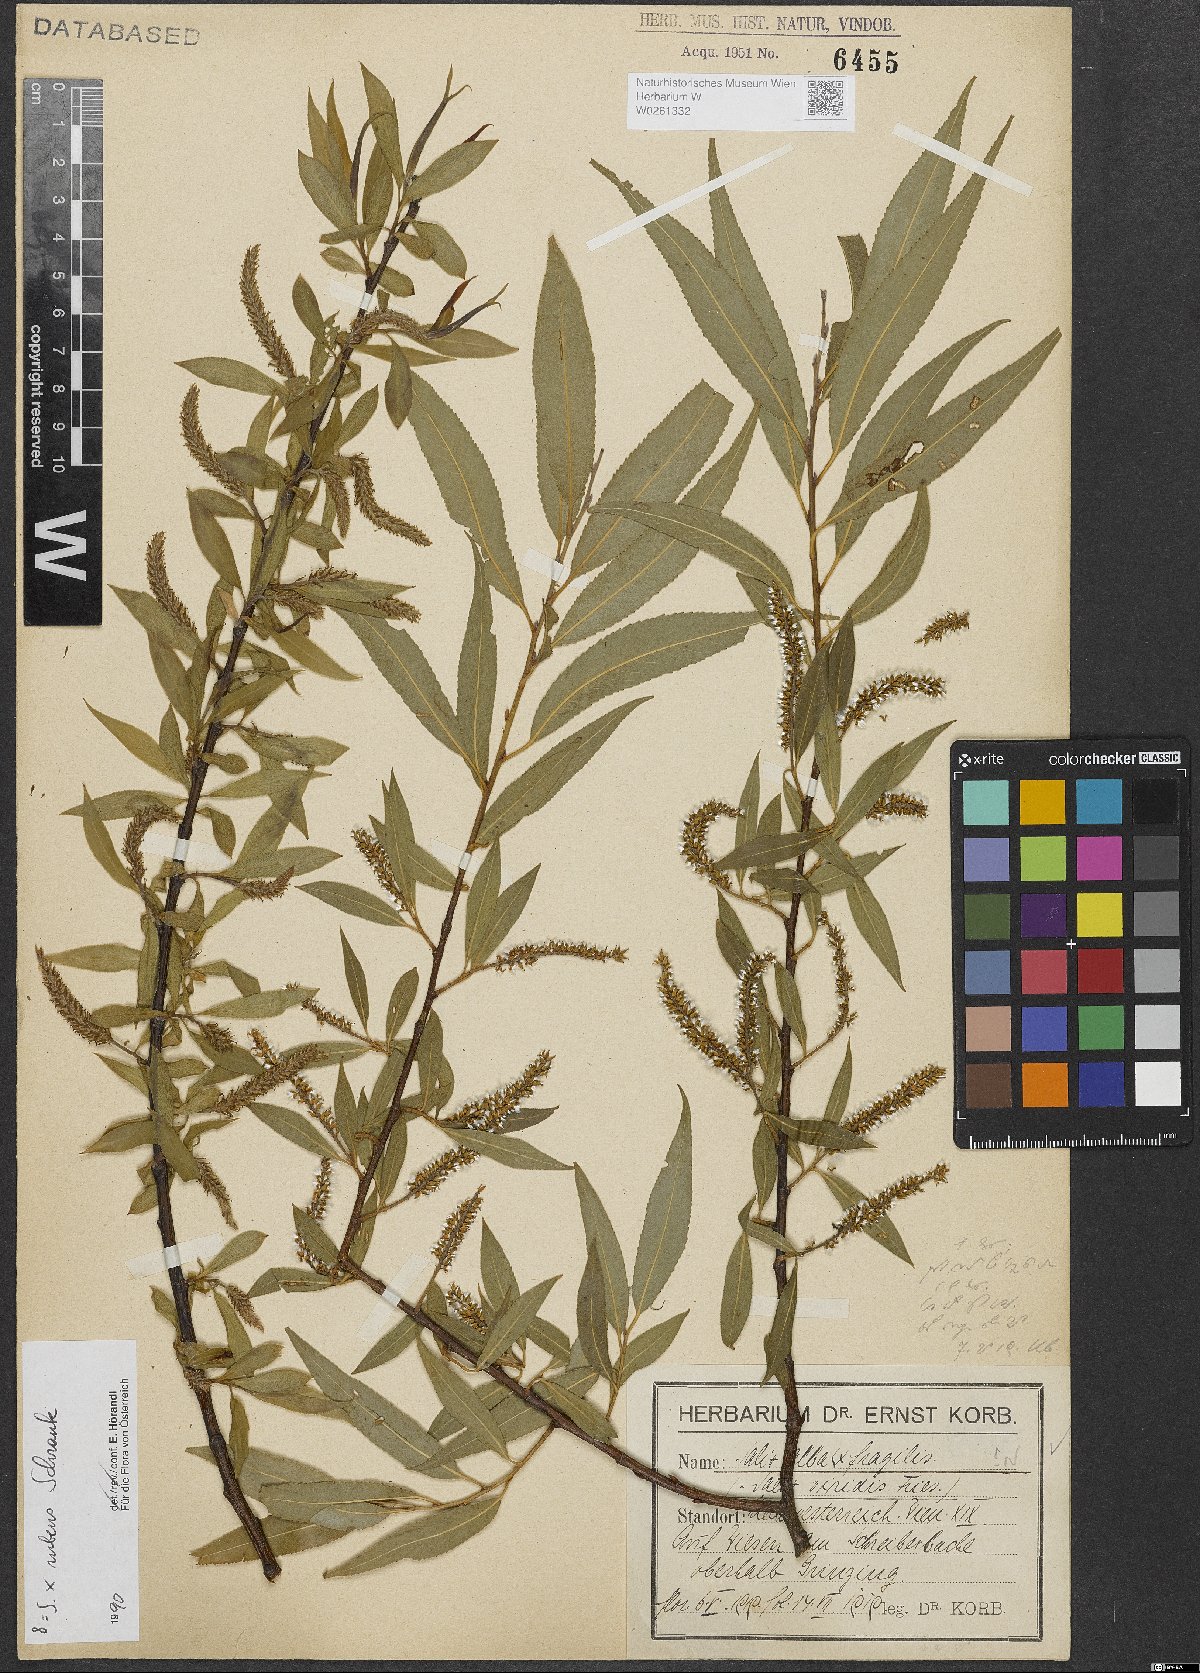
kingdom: Plantae
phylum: Tracheophyta
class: Magnoliopsida
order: Malpighiales
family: Salicaceae
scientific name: Salicaceae
